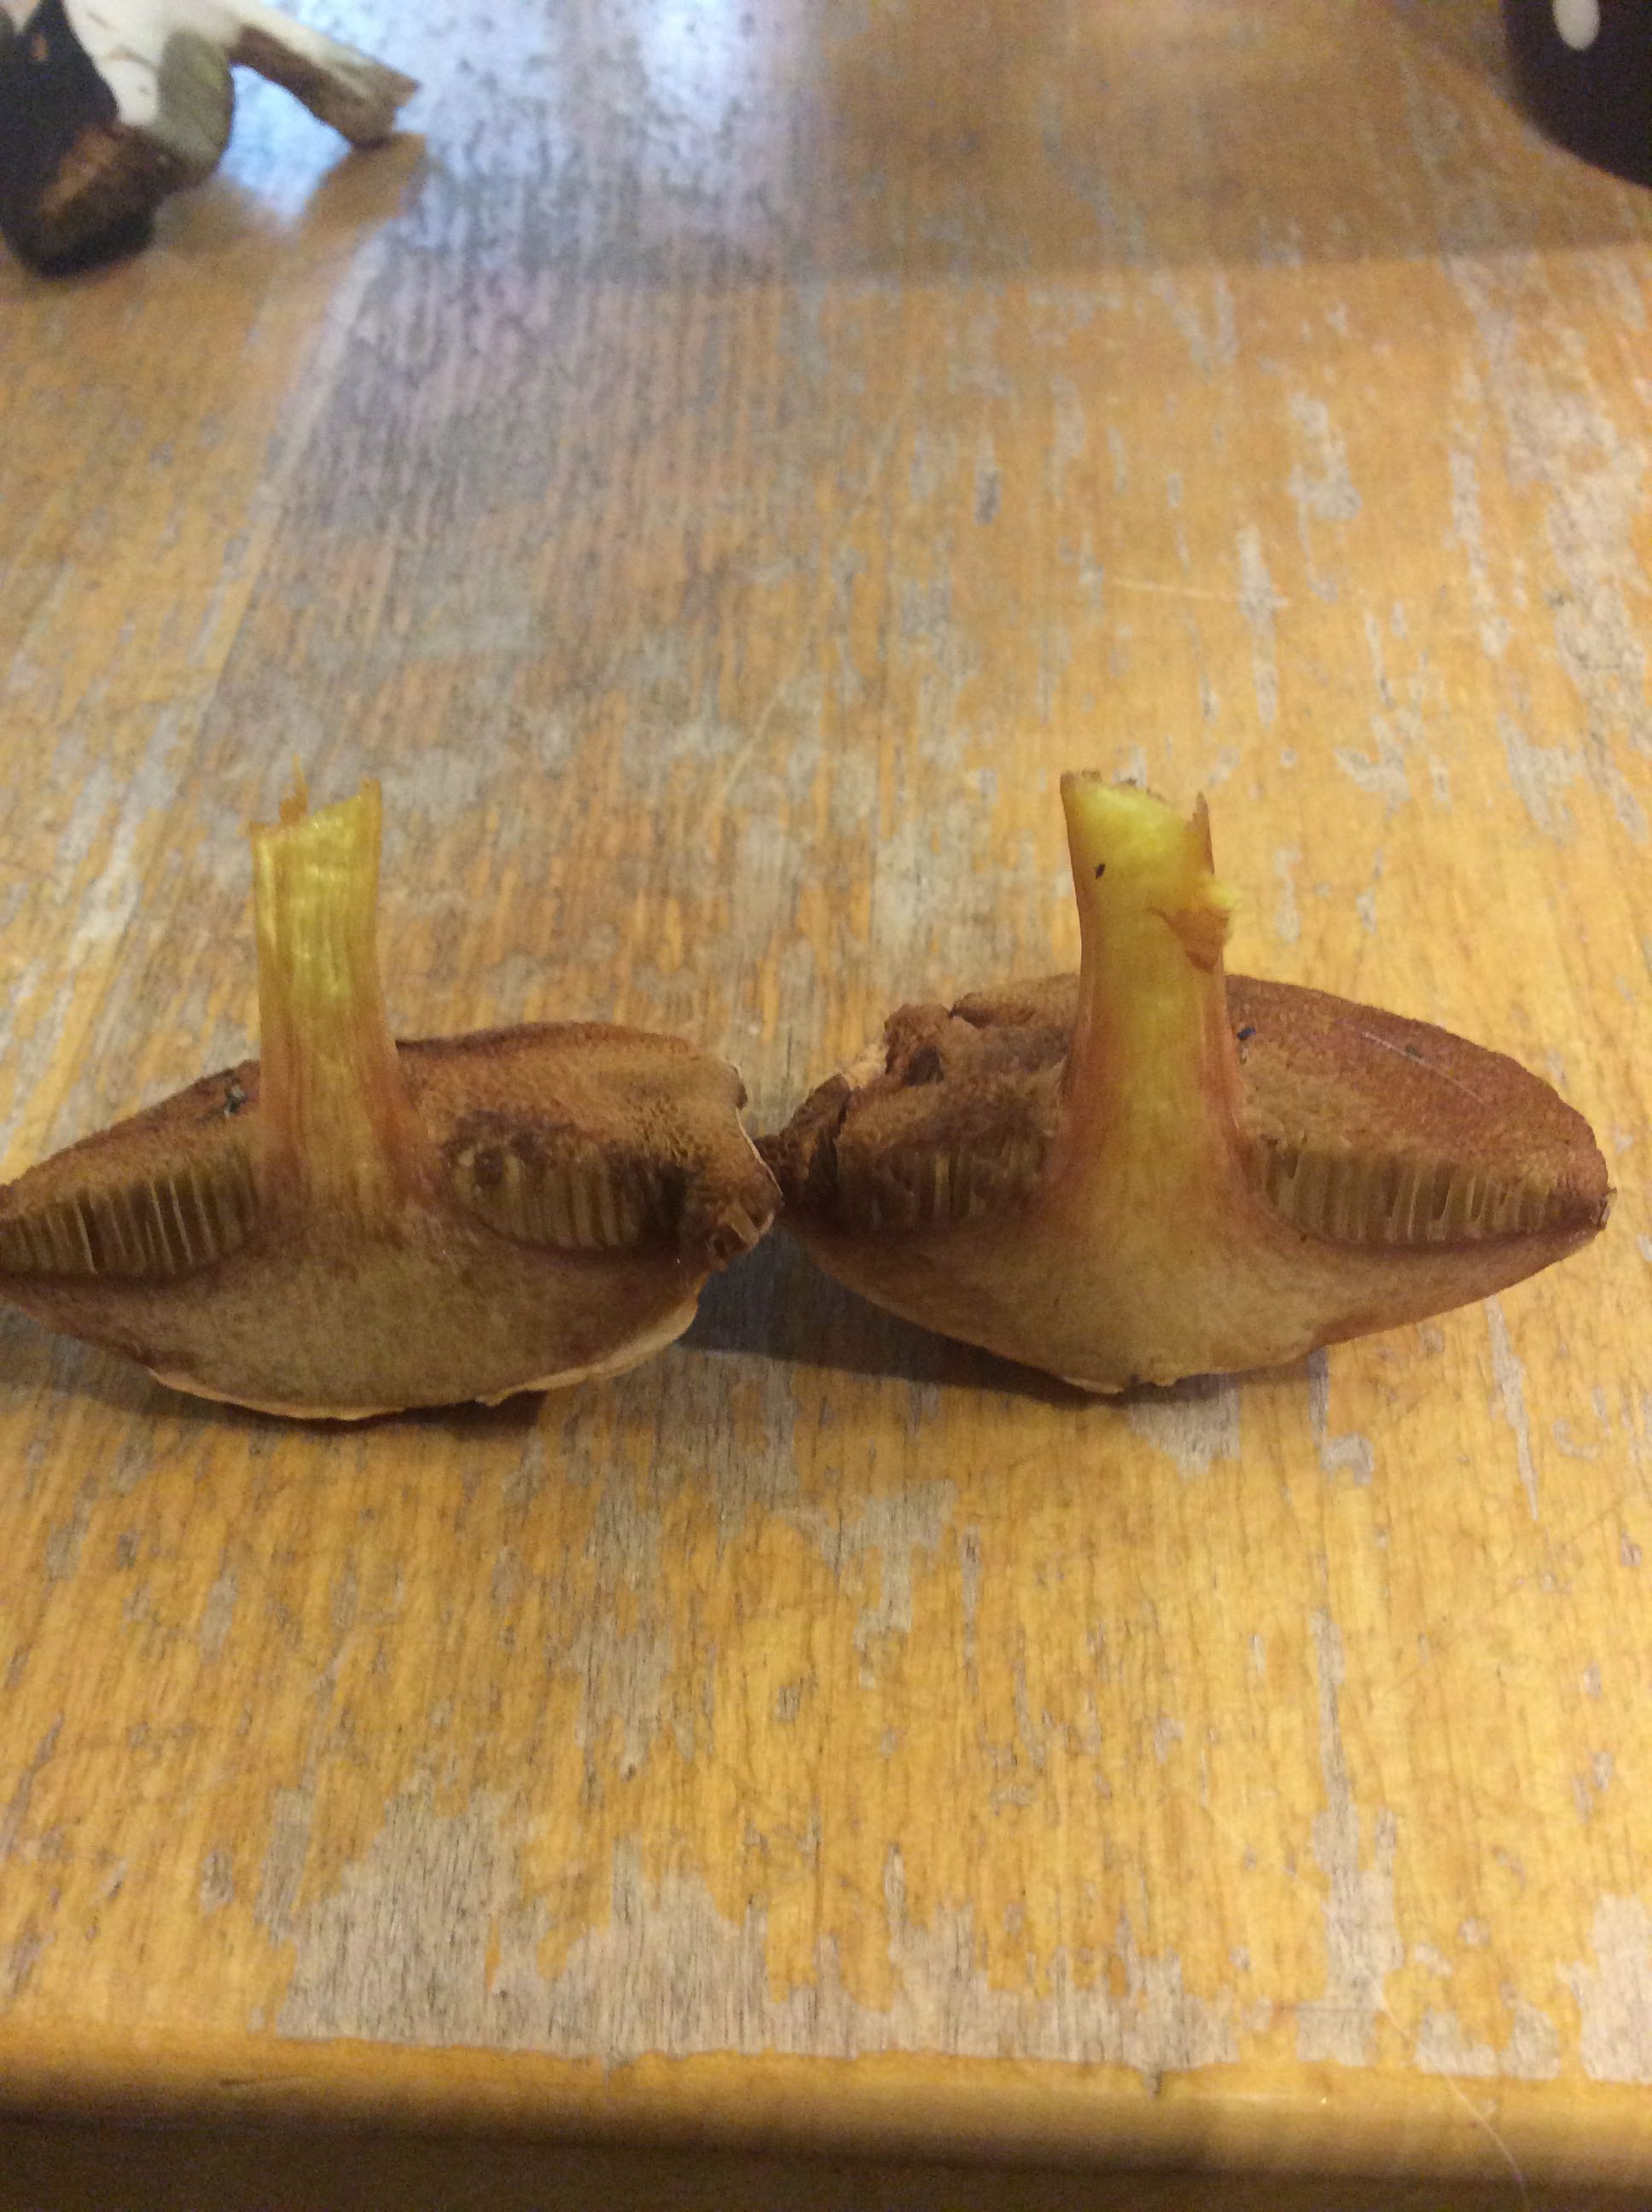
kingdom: Fungi
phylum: Basidiomycota
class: Agaricomycetes
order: Boletales
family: Boletaceae
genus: Chalciporus
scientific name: Chalciporus piperatus
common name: peberrørhat
